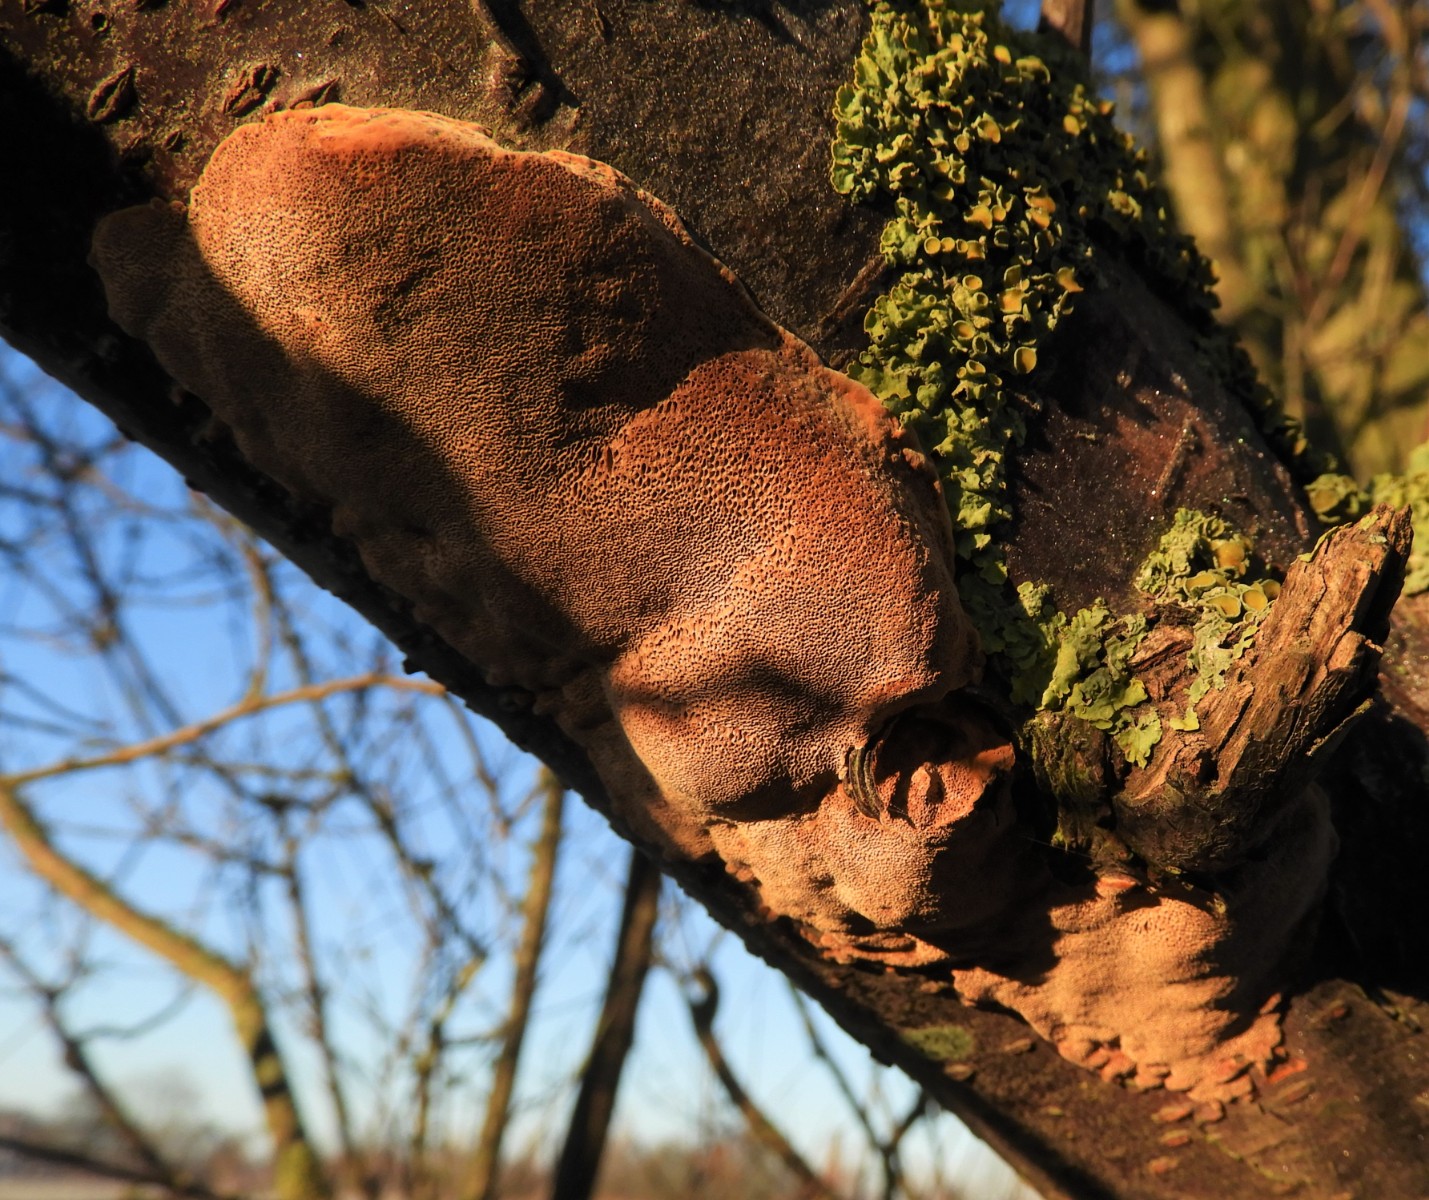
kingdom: Fungi
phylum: Basidiomycota
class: Agaricomycetes
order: Hymenochaetales
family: Hymenochaetaceae
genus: Phellinus
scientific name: Phellinus pomaceus
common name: blomme-ildporesvamp
